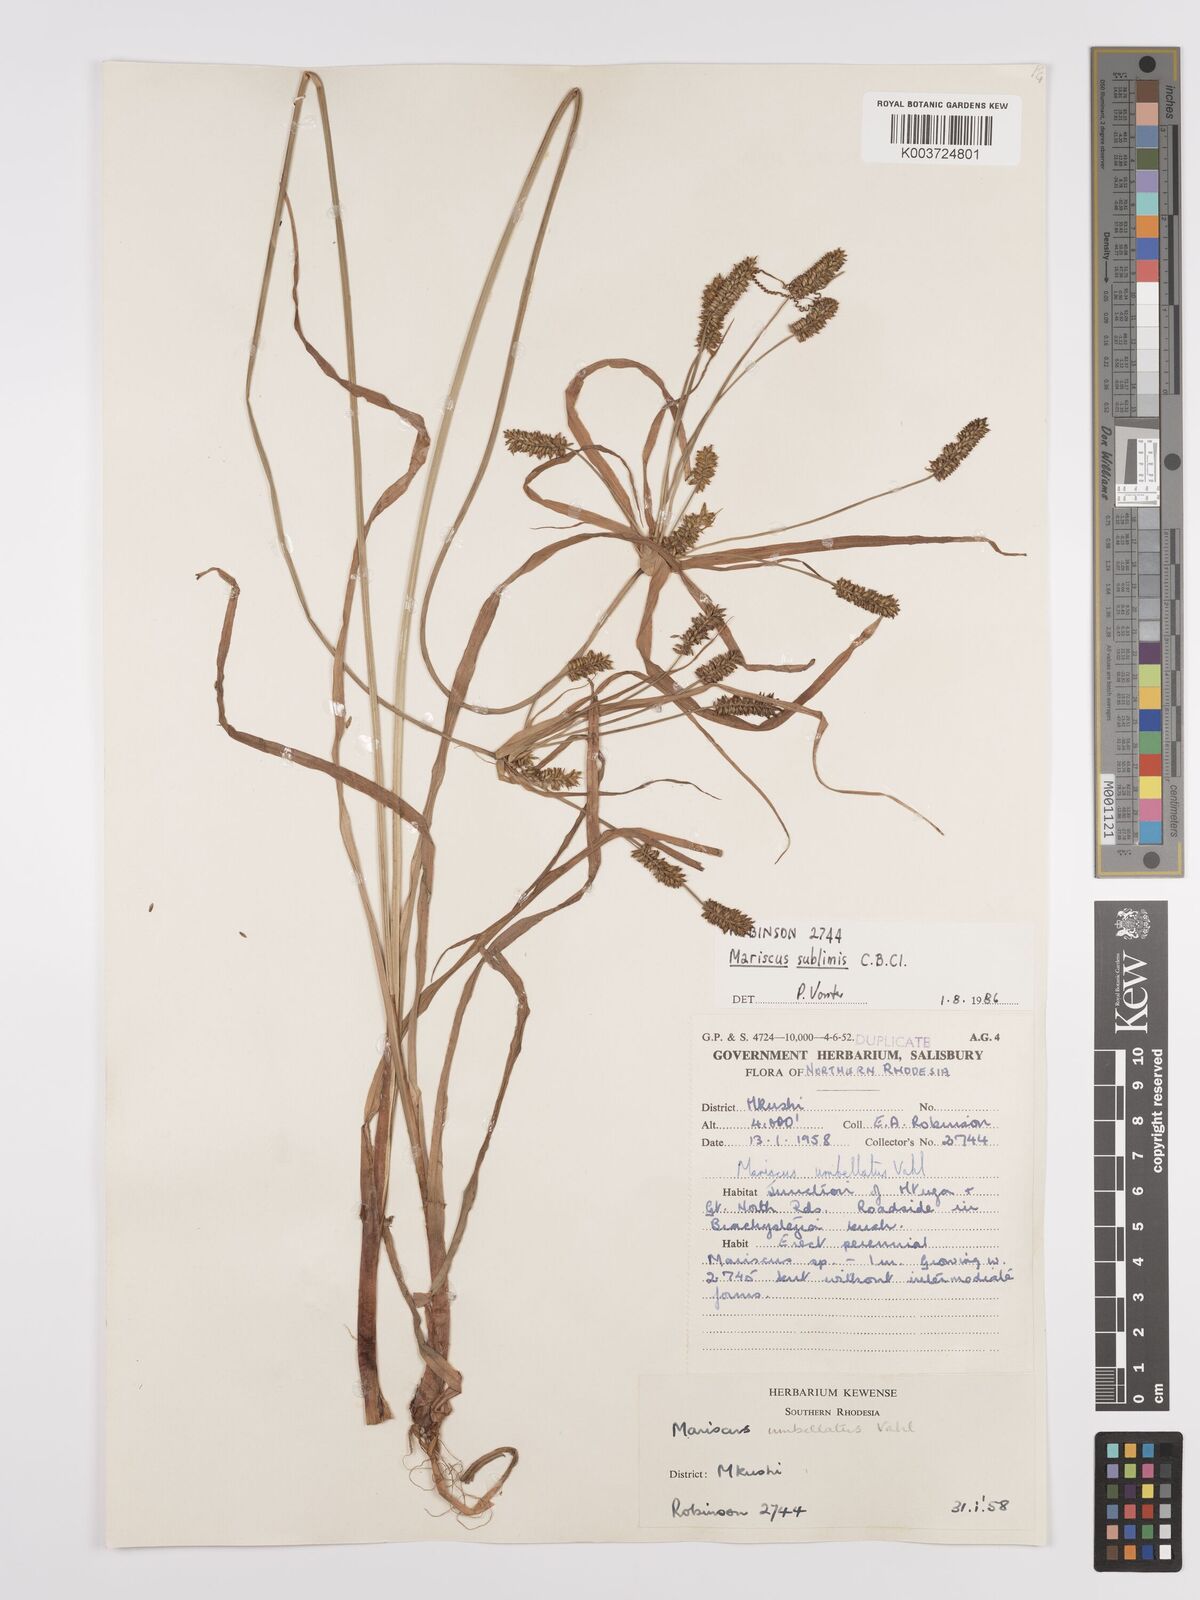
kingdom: Plantae
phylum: Tracheophyta
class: Liliopsida
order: Poales
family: Cyperaceae
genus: Cyperus
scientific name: Cyperus cyperoides
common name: Pacific island flat sedge
